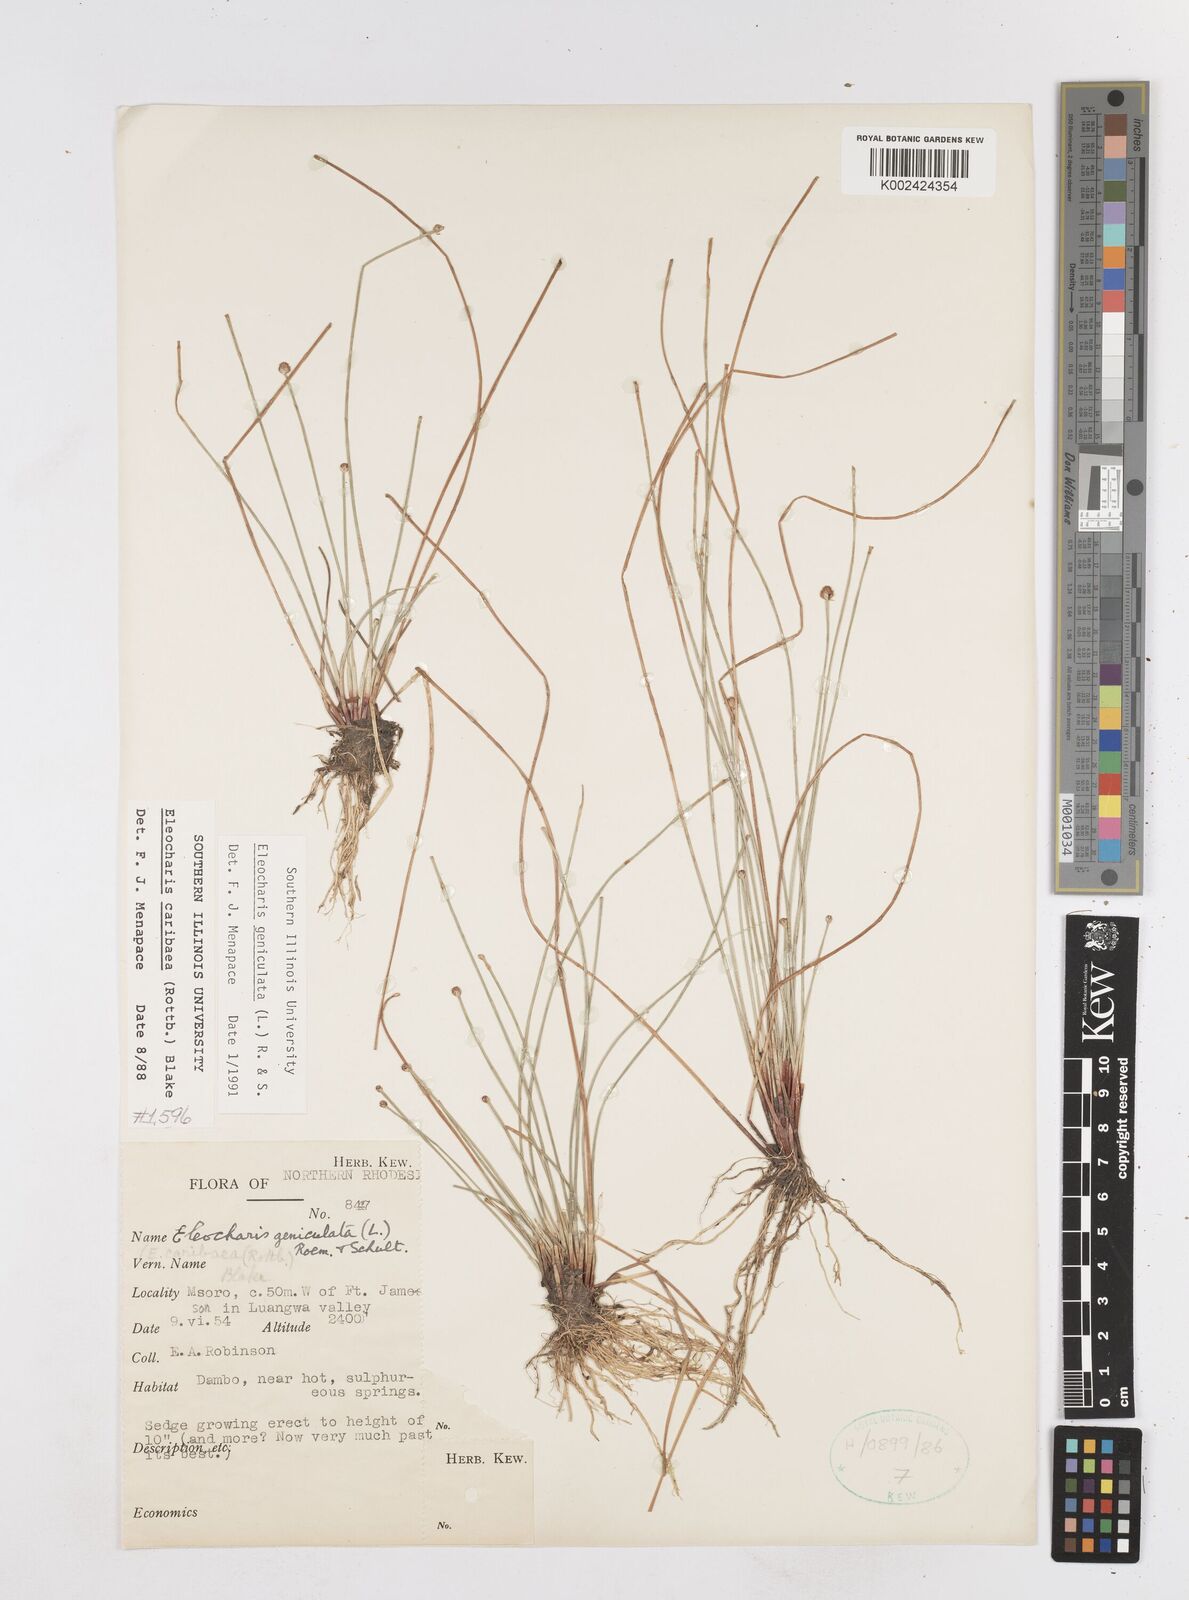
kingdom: Plantae
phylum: Tracheophyta
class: Liliopsida
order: Poales
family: Cyperaceae
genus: Eleocharis
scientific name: Eleocharis geniculata
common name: Canada spikesedge
